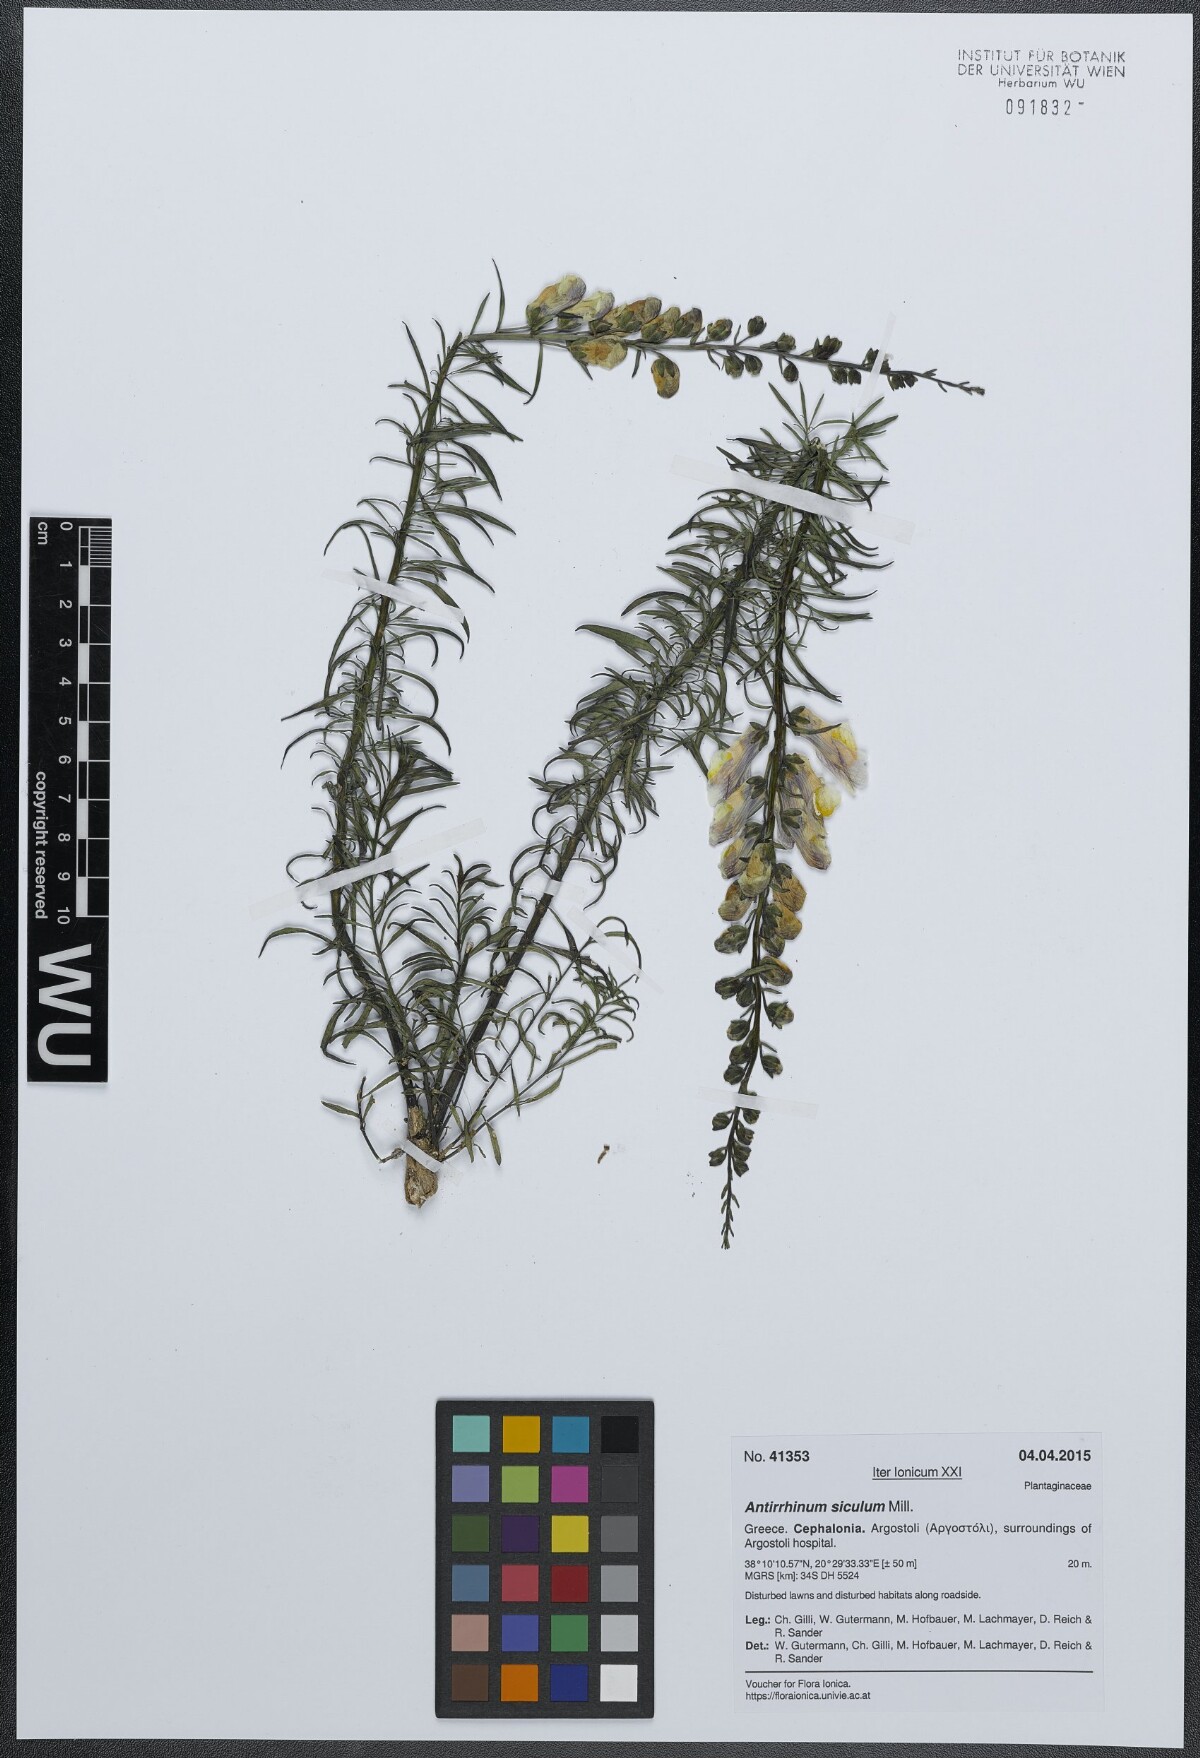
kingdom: Plantae
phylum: Tracheophyta
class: Magnoliopsida
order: Lamiales
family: Plantaginaceae
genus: Antirrhinum
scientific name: Antirrhinum siculum
